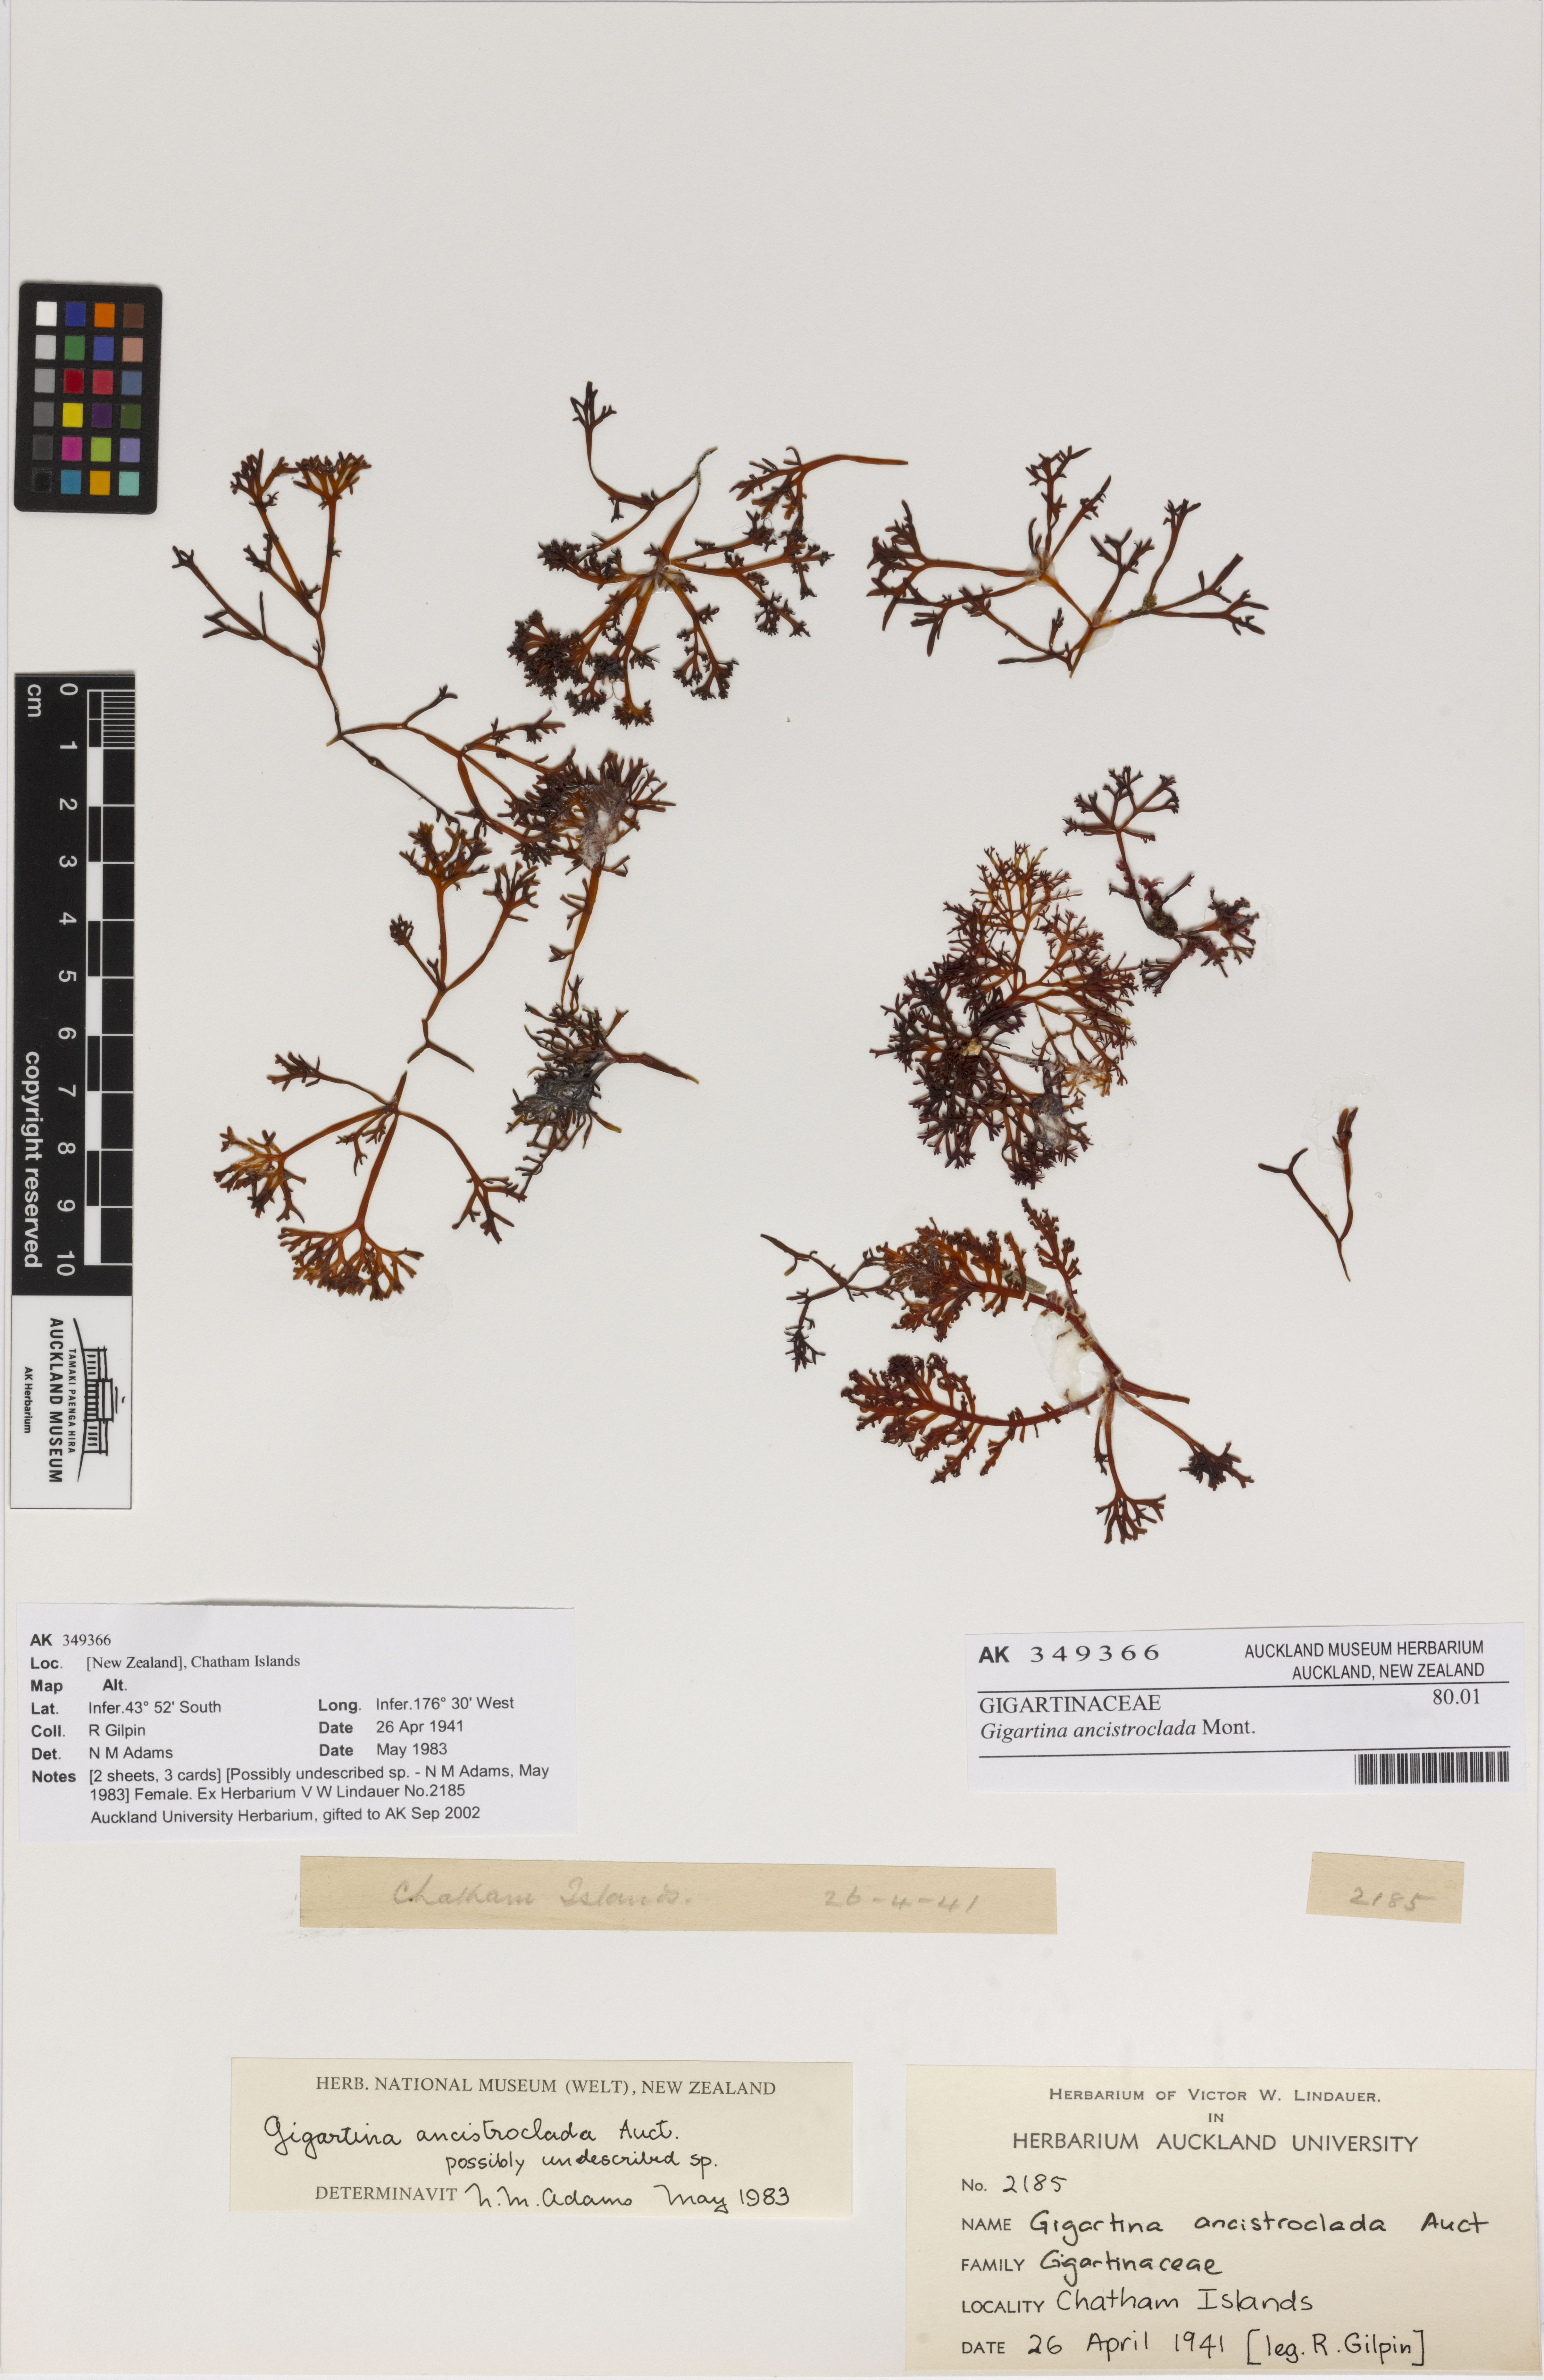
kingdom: Plantae
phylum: Rhodophyta
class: Florideophyceae
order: Gigartinales
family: Gigartinaceae
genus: Gigartina
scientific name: Gigartina
